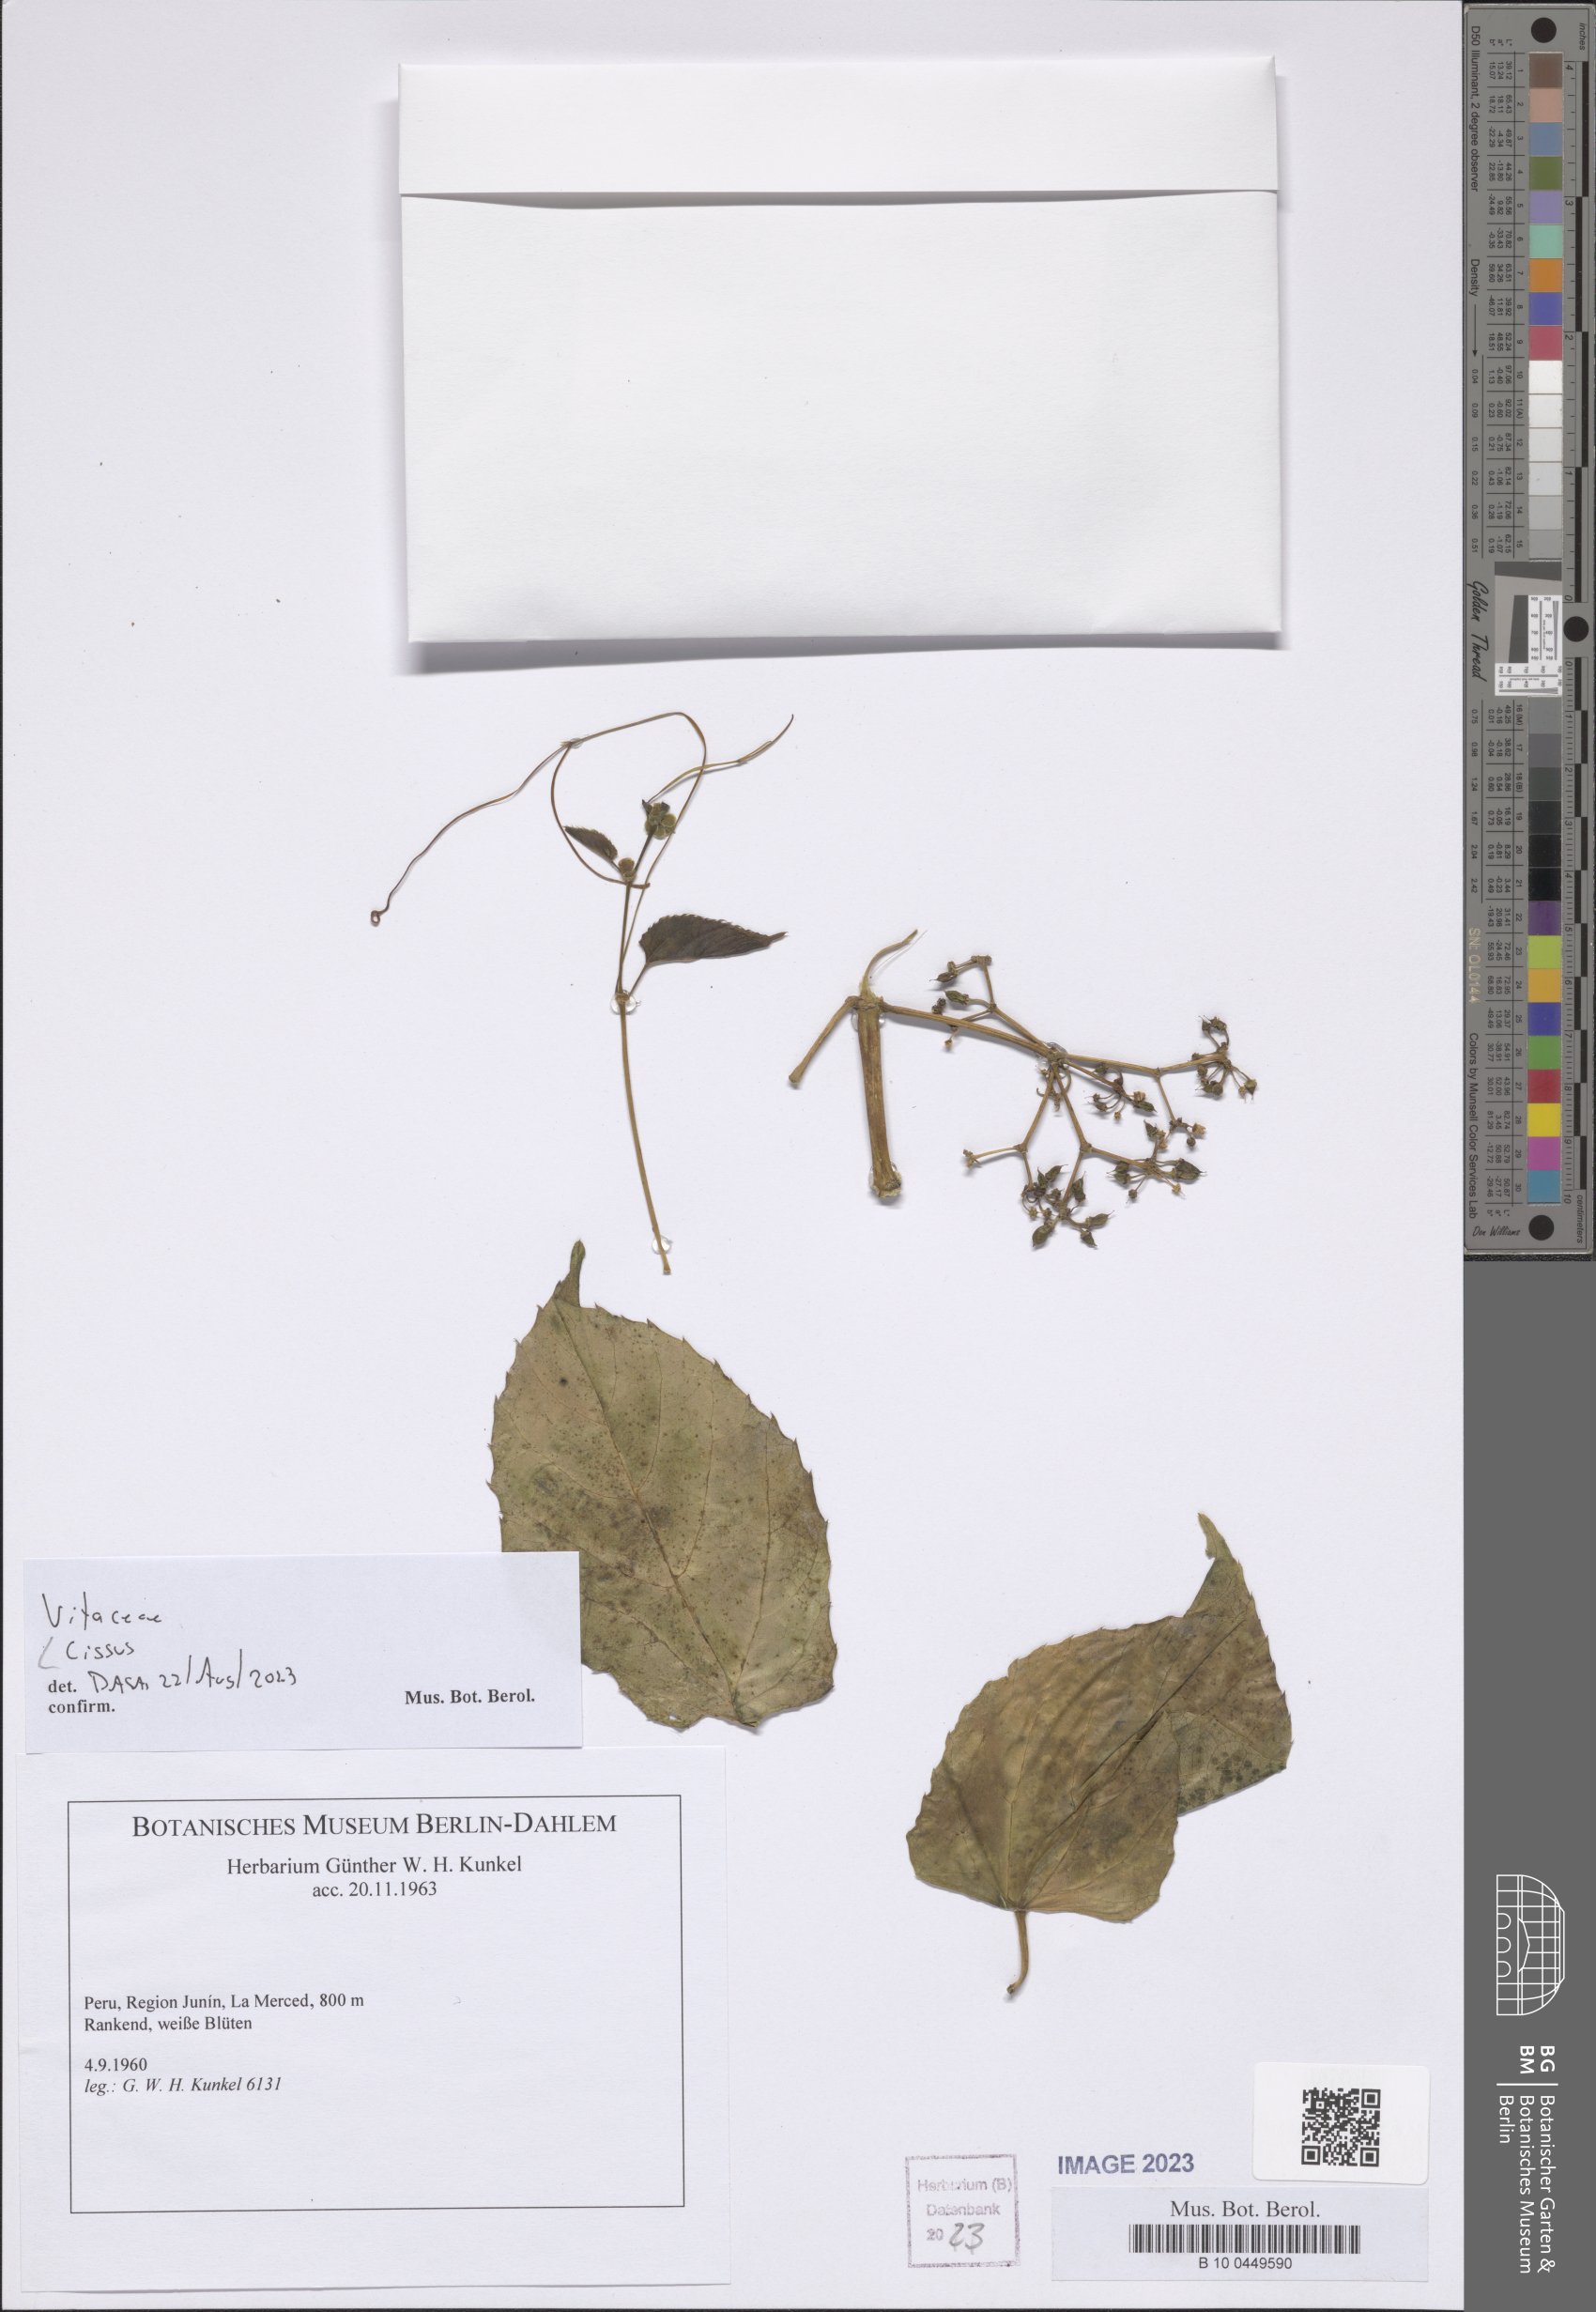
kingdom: Plantae
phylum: Tracheophyta
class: Magnoliopsida
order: Vitales
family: Vitaceae
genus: Cissus
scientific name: Cissus
